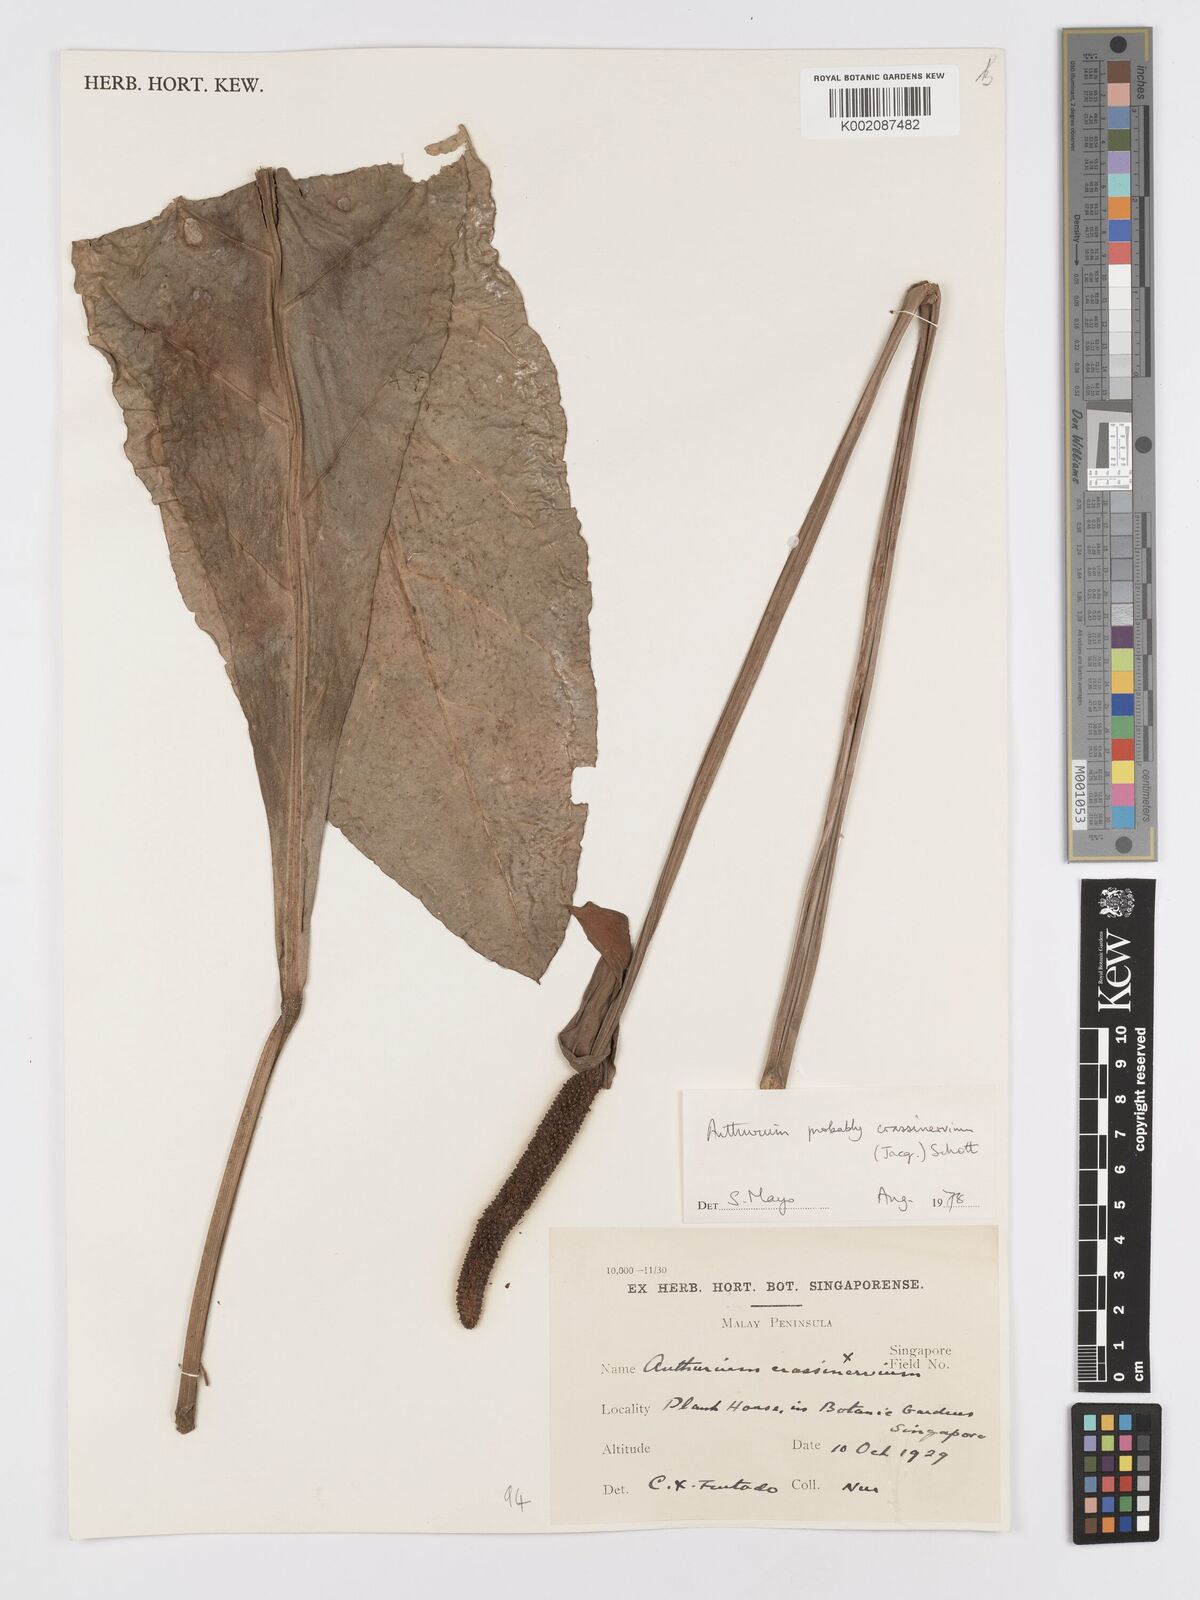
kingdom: Plantae
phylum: Tracheophyta
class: Liliopsida
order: Alismatales
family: Araceae
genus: Anthurium
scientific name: Anthurium crassinervium
